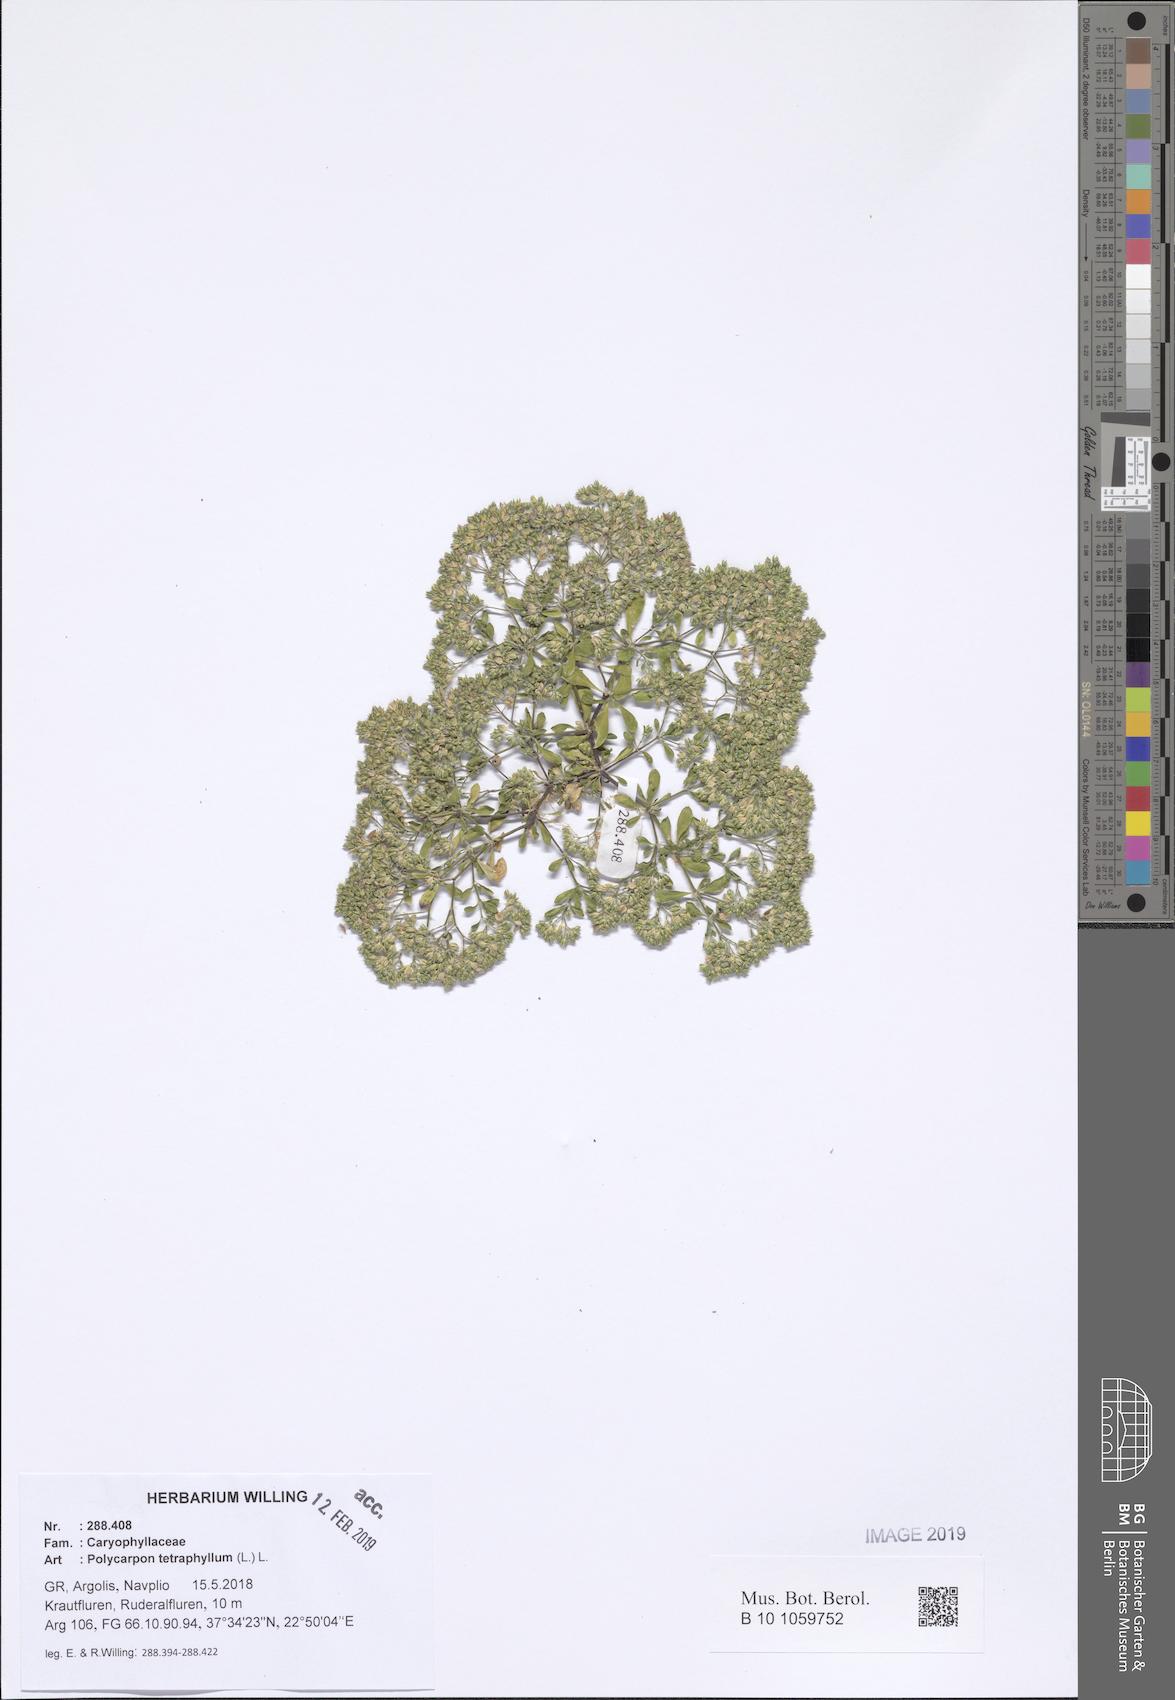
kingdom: Plantae
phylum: Tracheophyta
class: Magnoliopsida
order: Caryophyllales
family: Caryophyllaceae
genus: Polycarpon
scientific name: Polycarpon tetraphyllum
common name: Four-leaved all-seed
